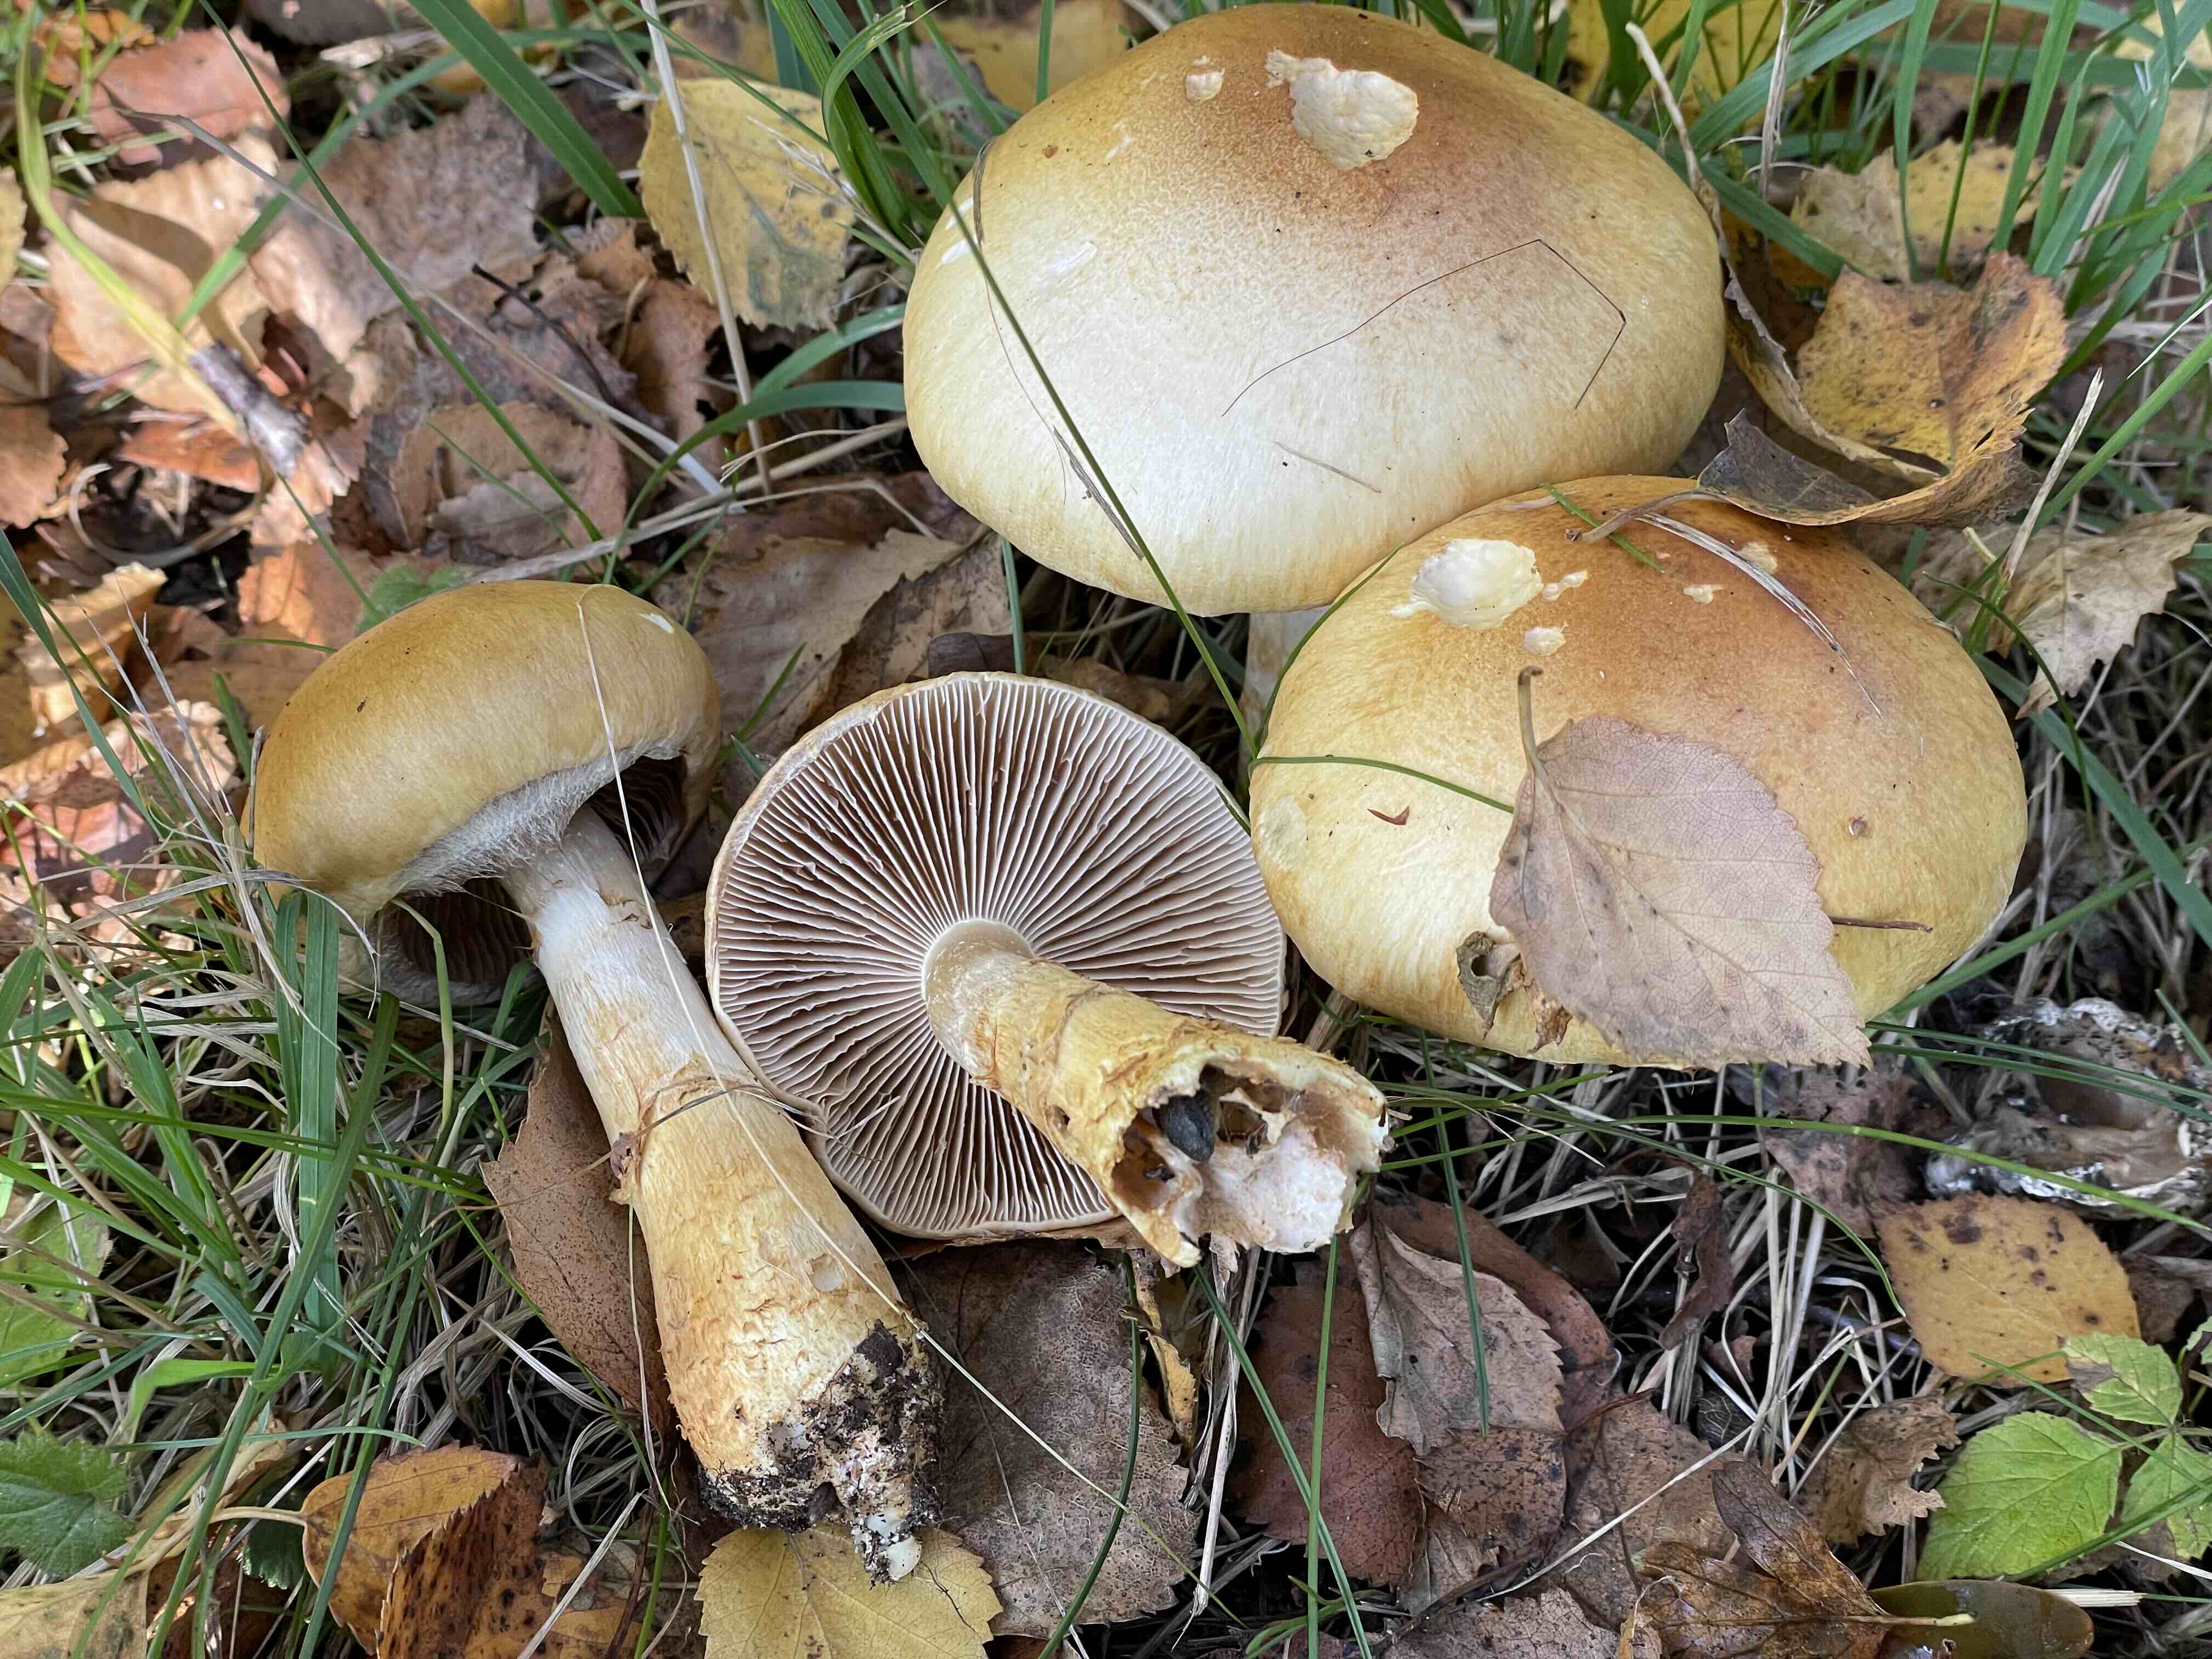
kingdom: Fungi
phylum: Basidiomycota
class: Agaricomycetes
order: Agaricales
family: Cortinariaceae
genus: Phlegmacium
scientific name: Phlegmacium triumphans
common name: gulbæltet slørhat
